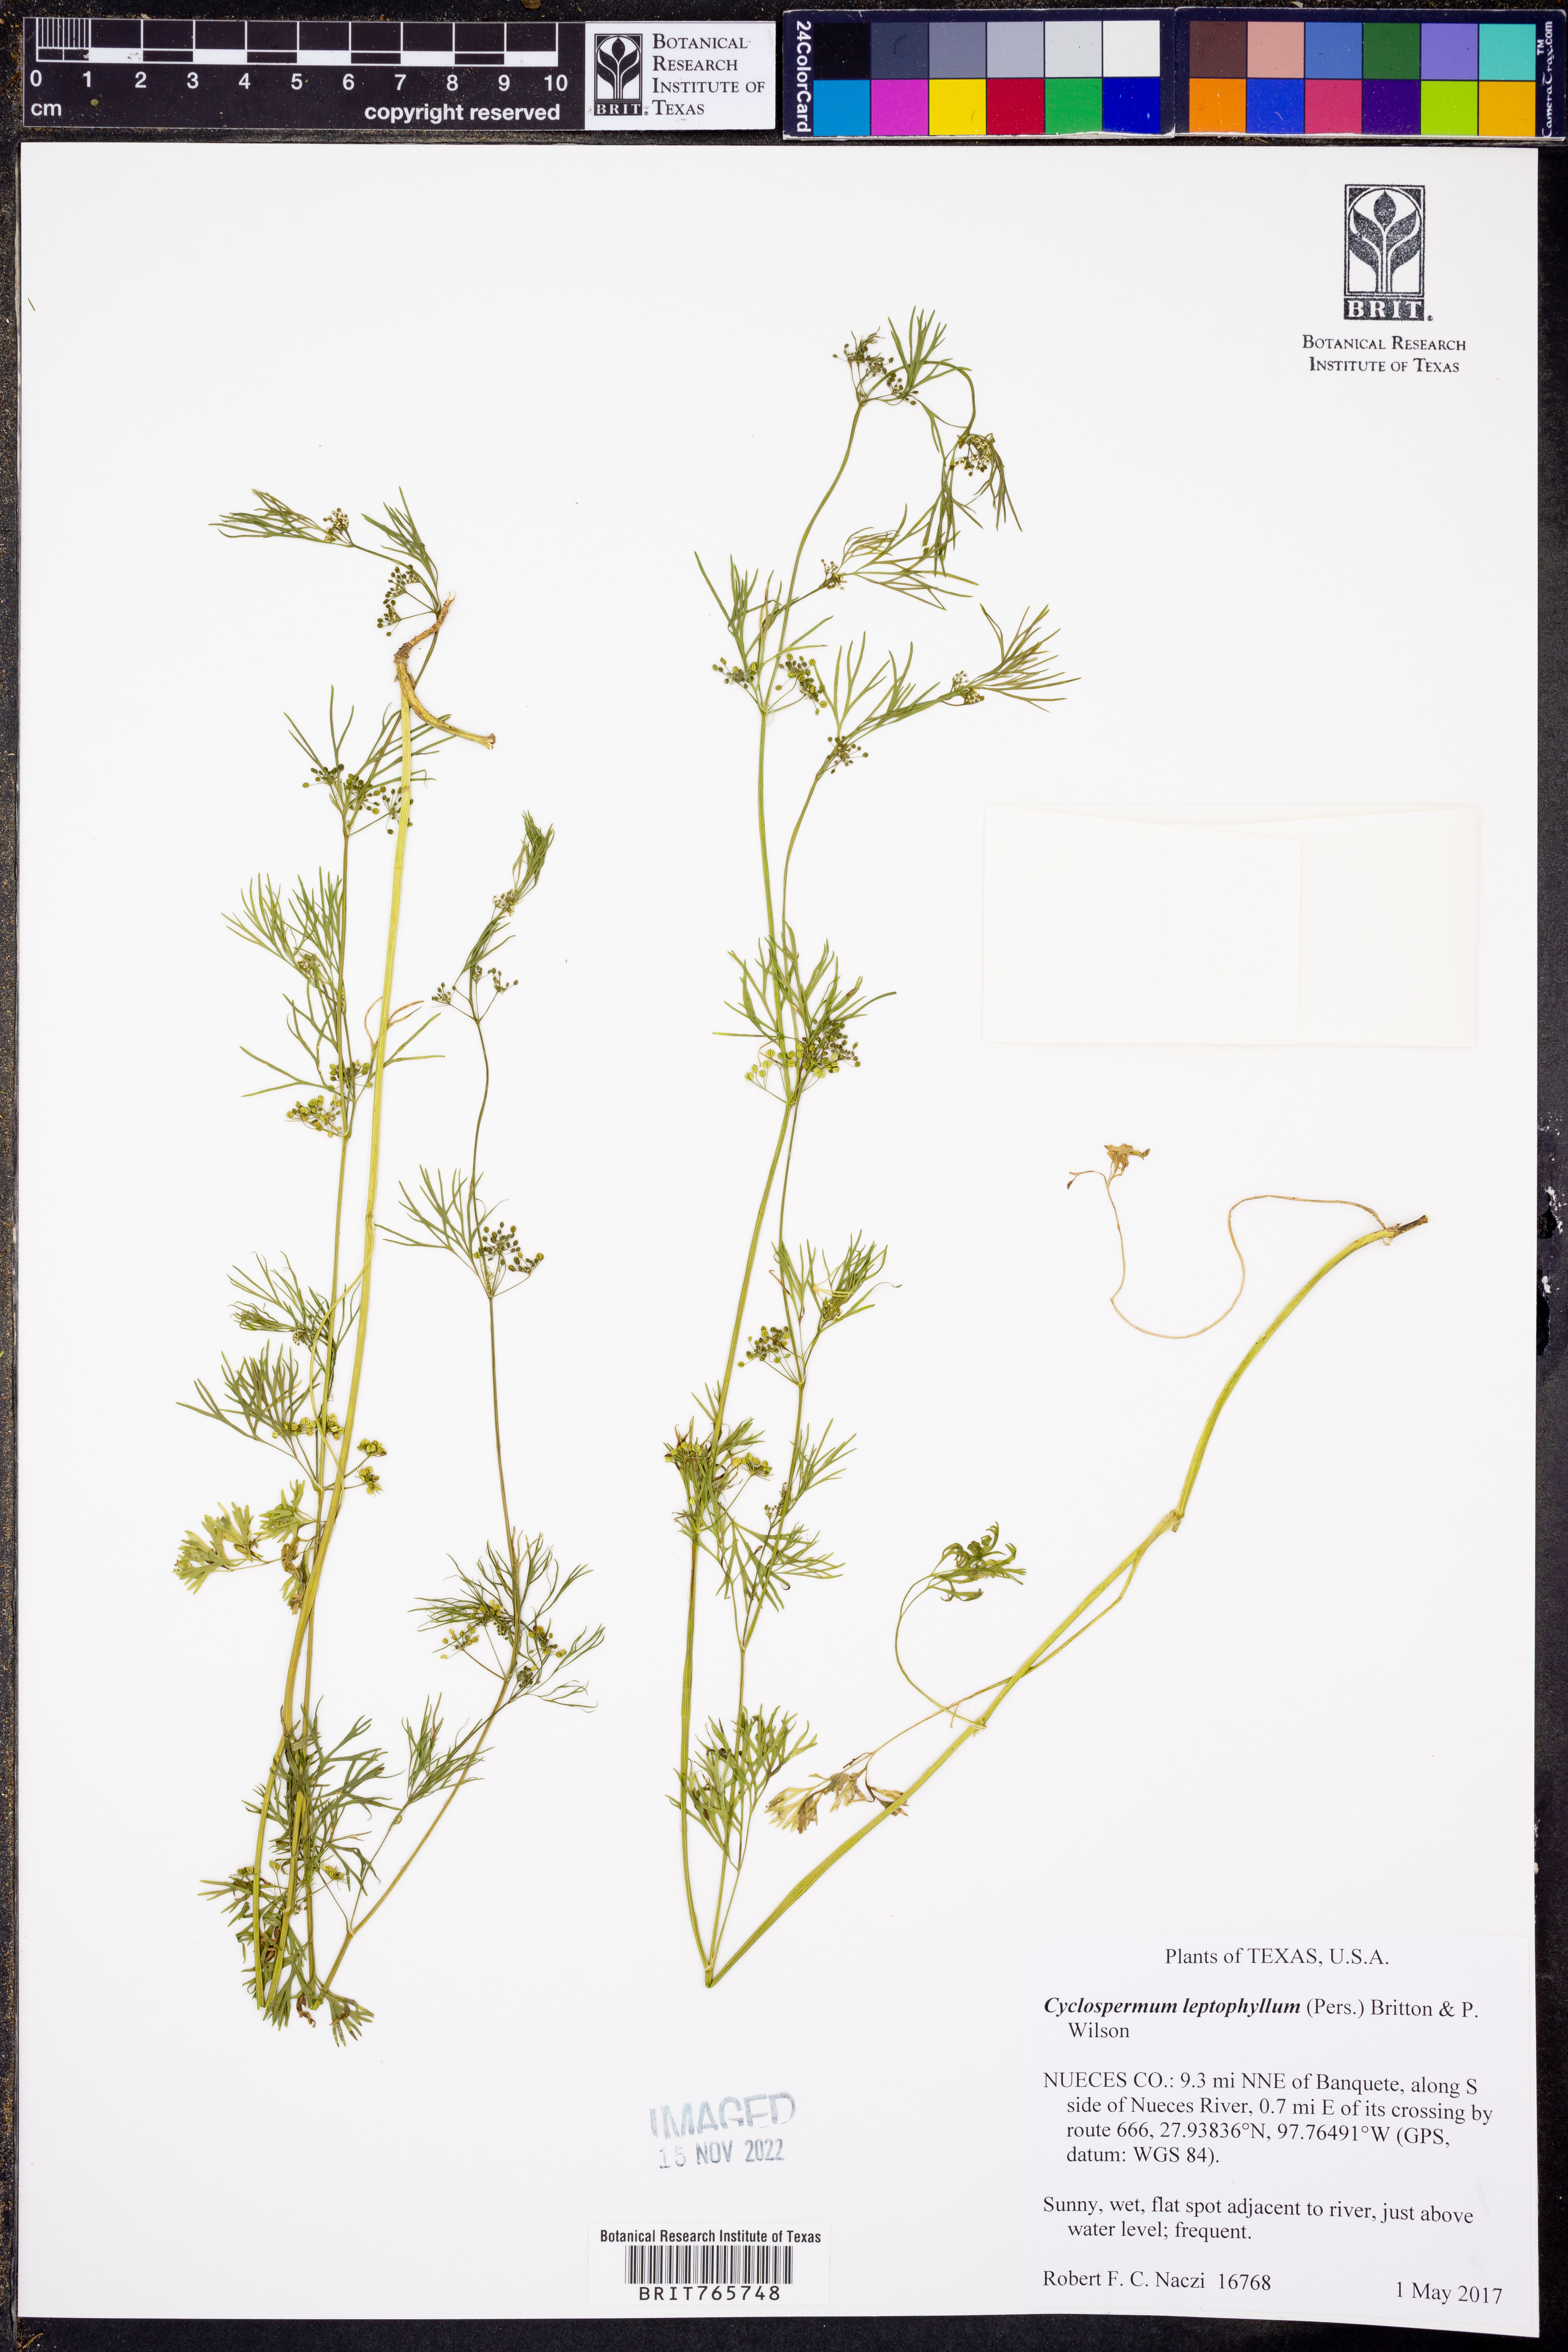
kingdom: Plantae
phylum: Tracheophyta
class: Magnoliopsida
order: Apiales
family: Apiaceae
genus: Cyclospermum
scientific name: Cyclospermum leptophyllum
